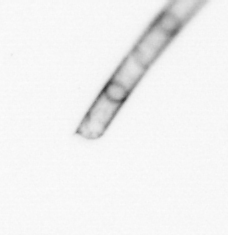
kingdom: Chromista
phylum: Ochrophyta
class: Bacillariophyceae
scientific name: Bacillariophyceae
